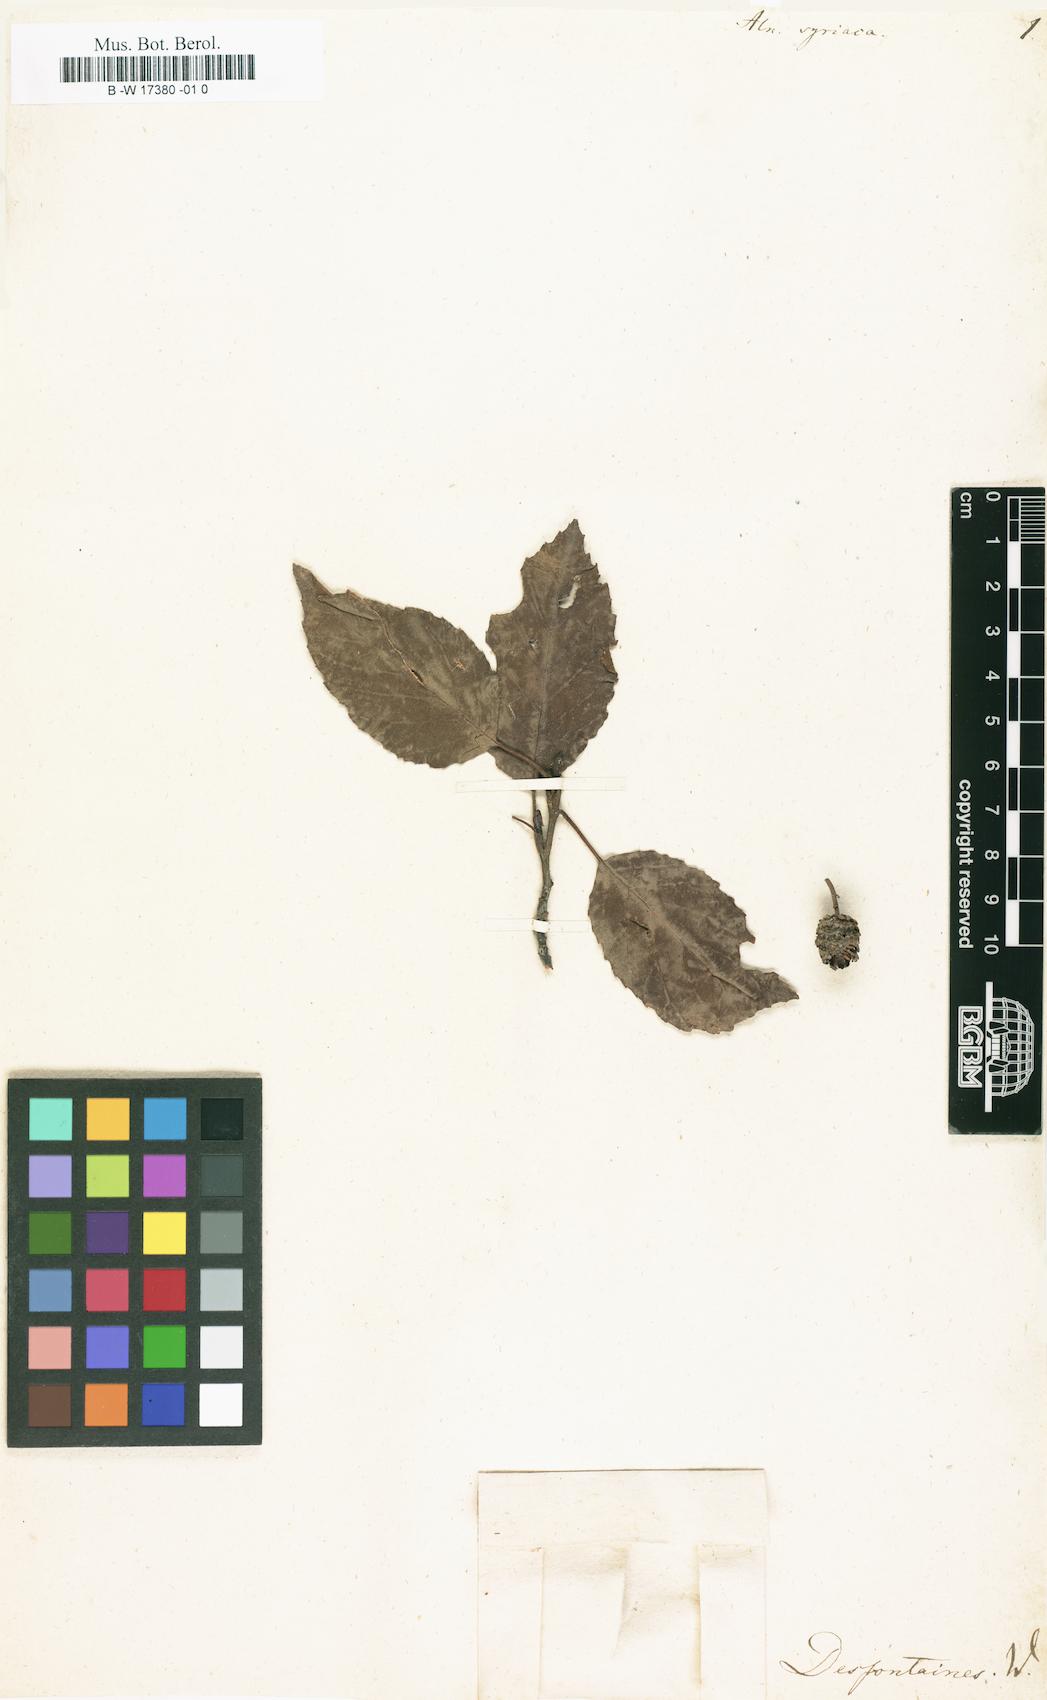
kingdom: Plantae
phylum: Tracheophyta
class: Magnoliopsida
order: Fagales
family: Betulaceae
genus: Alnus
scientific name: Alnus
